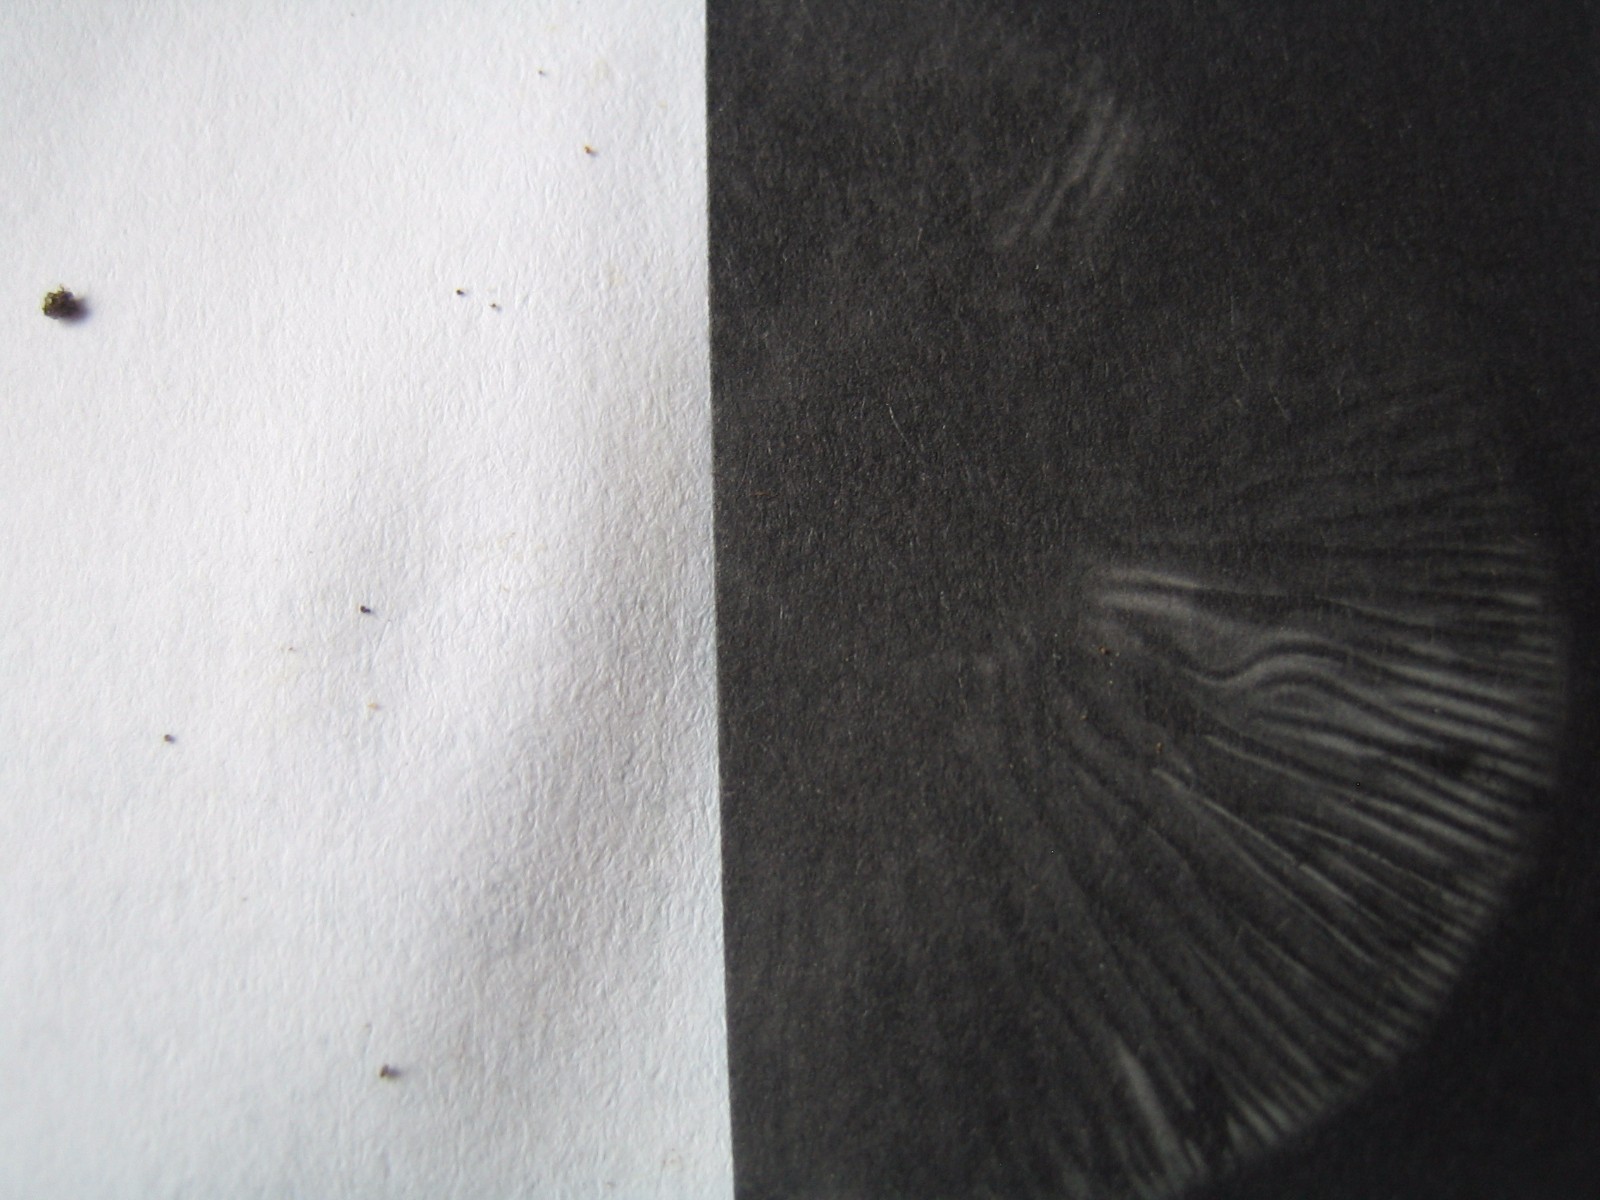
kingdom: Fungi
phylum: Basidiomycota
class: Agaricomycetes
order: Agaricales
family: Agaricaceae
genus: Lepiota
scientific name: Lepiota grangei
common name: grønskællet parasolhat
